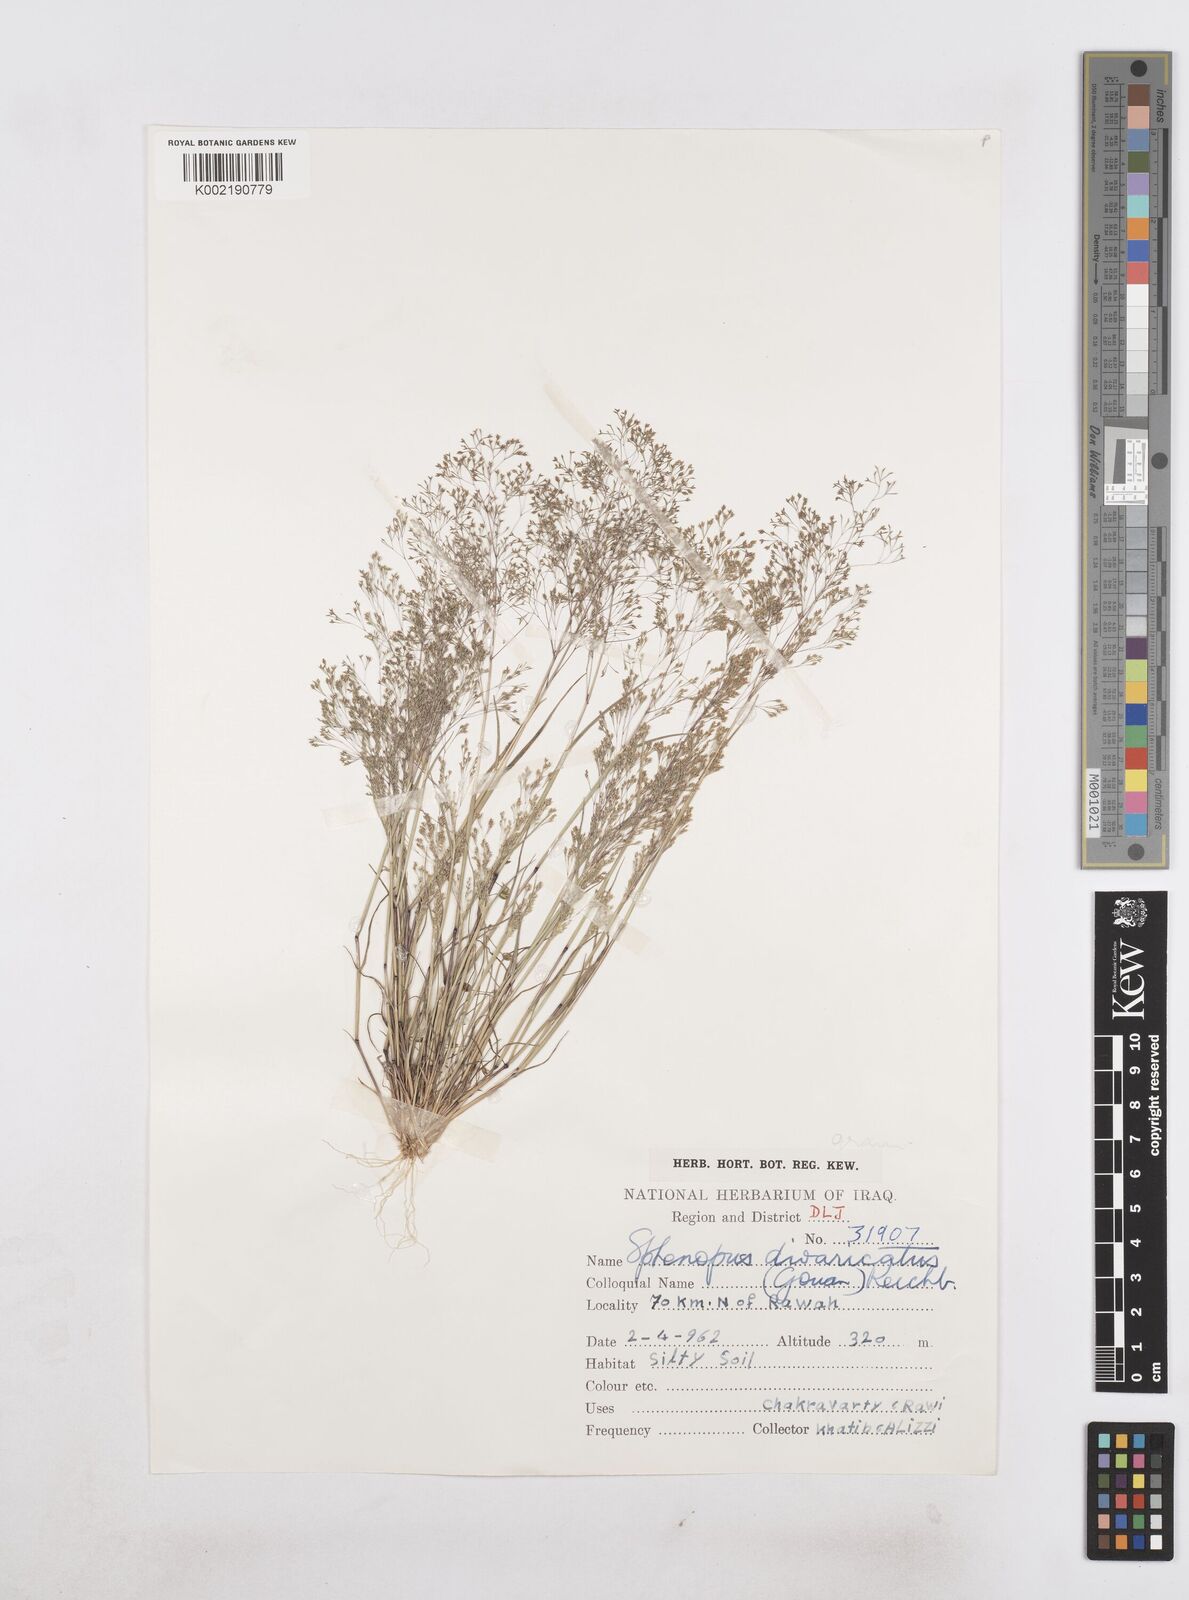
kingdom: Plantae
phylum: Tracheophyta
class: Liliopsida
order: Poales
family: Poaceae
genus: Sphenopus
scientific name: Sphenopus divaricatus
